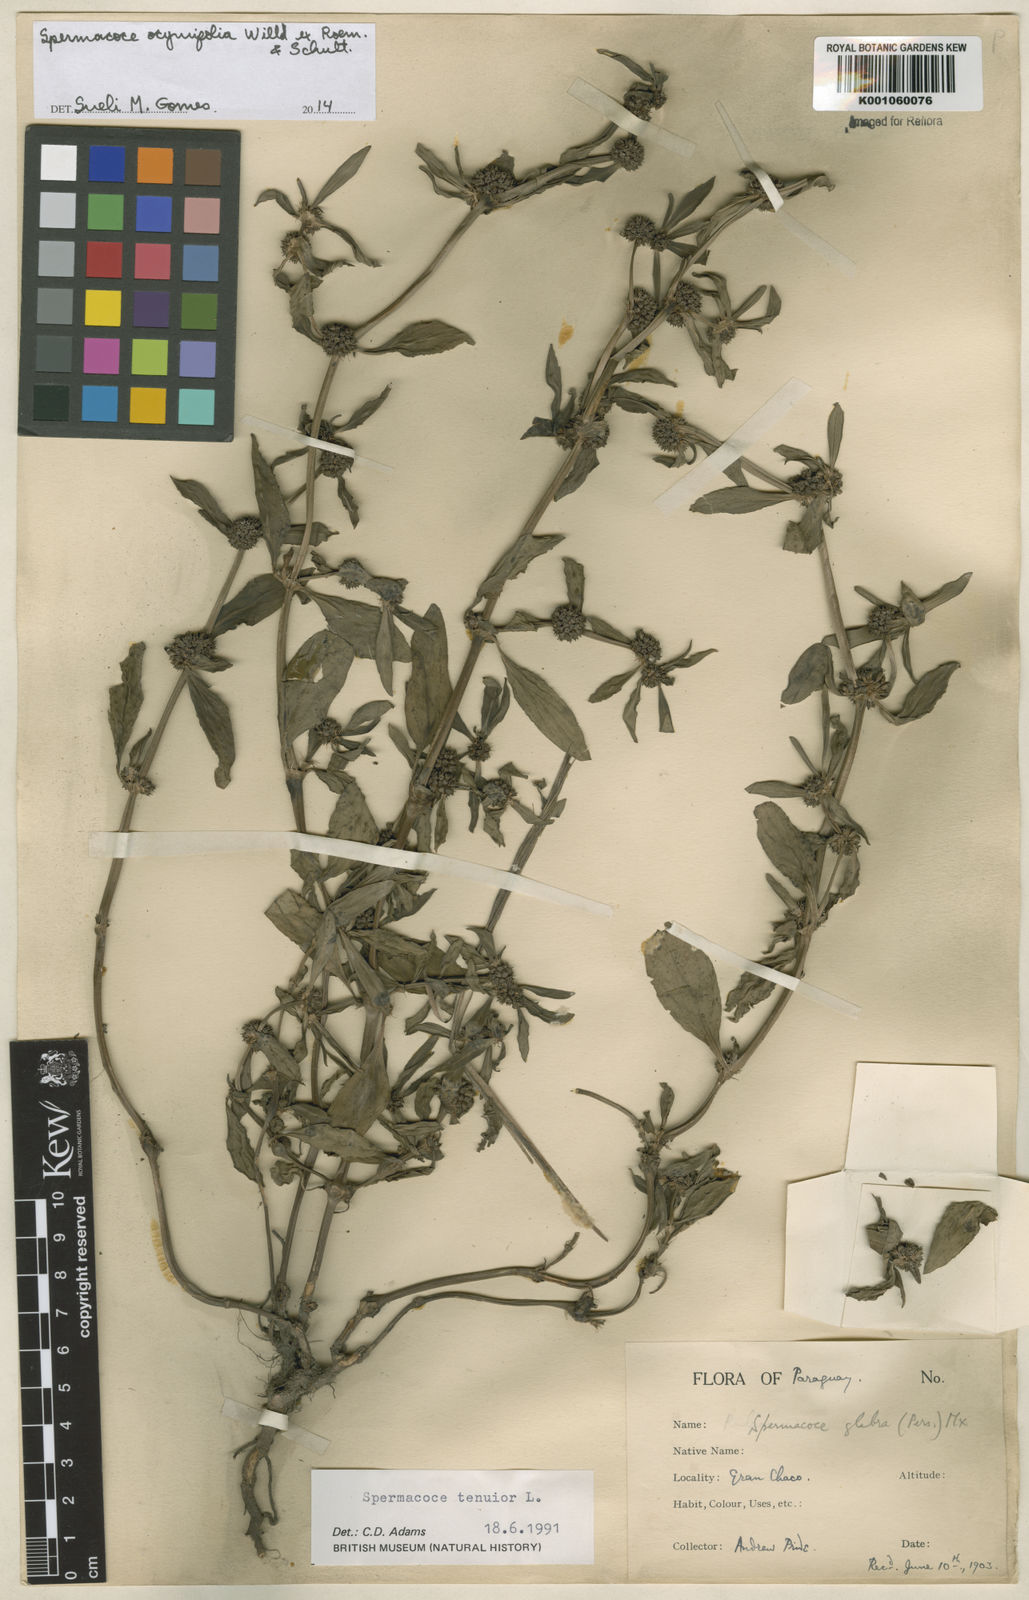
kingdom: Plantae
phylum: Tracheophyta
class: Magnoliopsida
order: Gentianales
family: Rubiaceae
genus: Spermacoce
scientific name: Spermacoce
